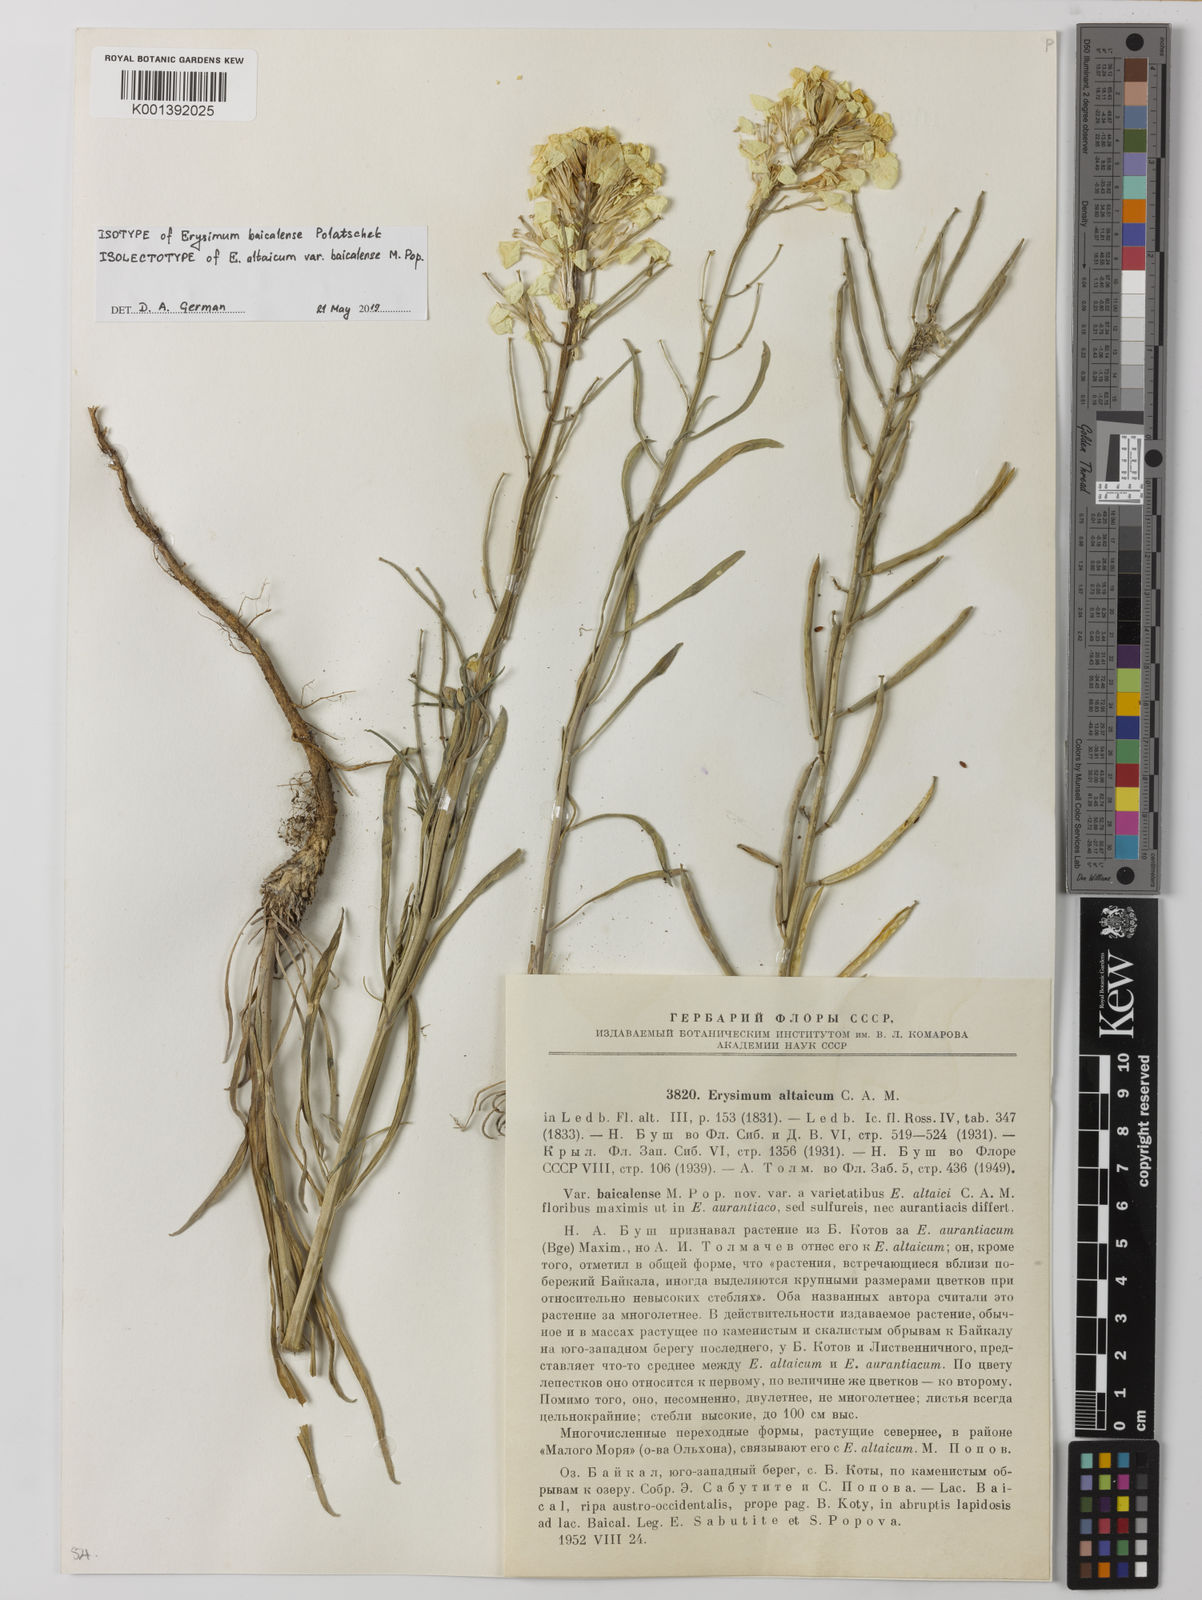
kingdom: Plantae
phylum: Tracheophyta
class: Magnoliopsida
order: Brassicales
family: Brassicaceae
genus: Erysimum
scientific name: Erysimum altaicum
